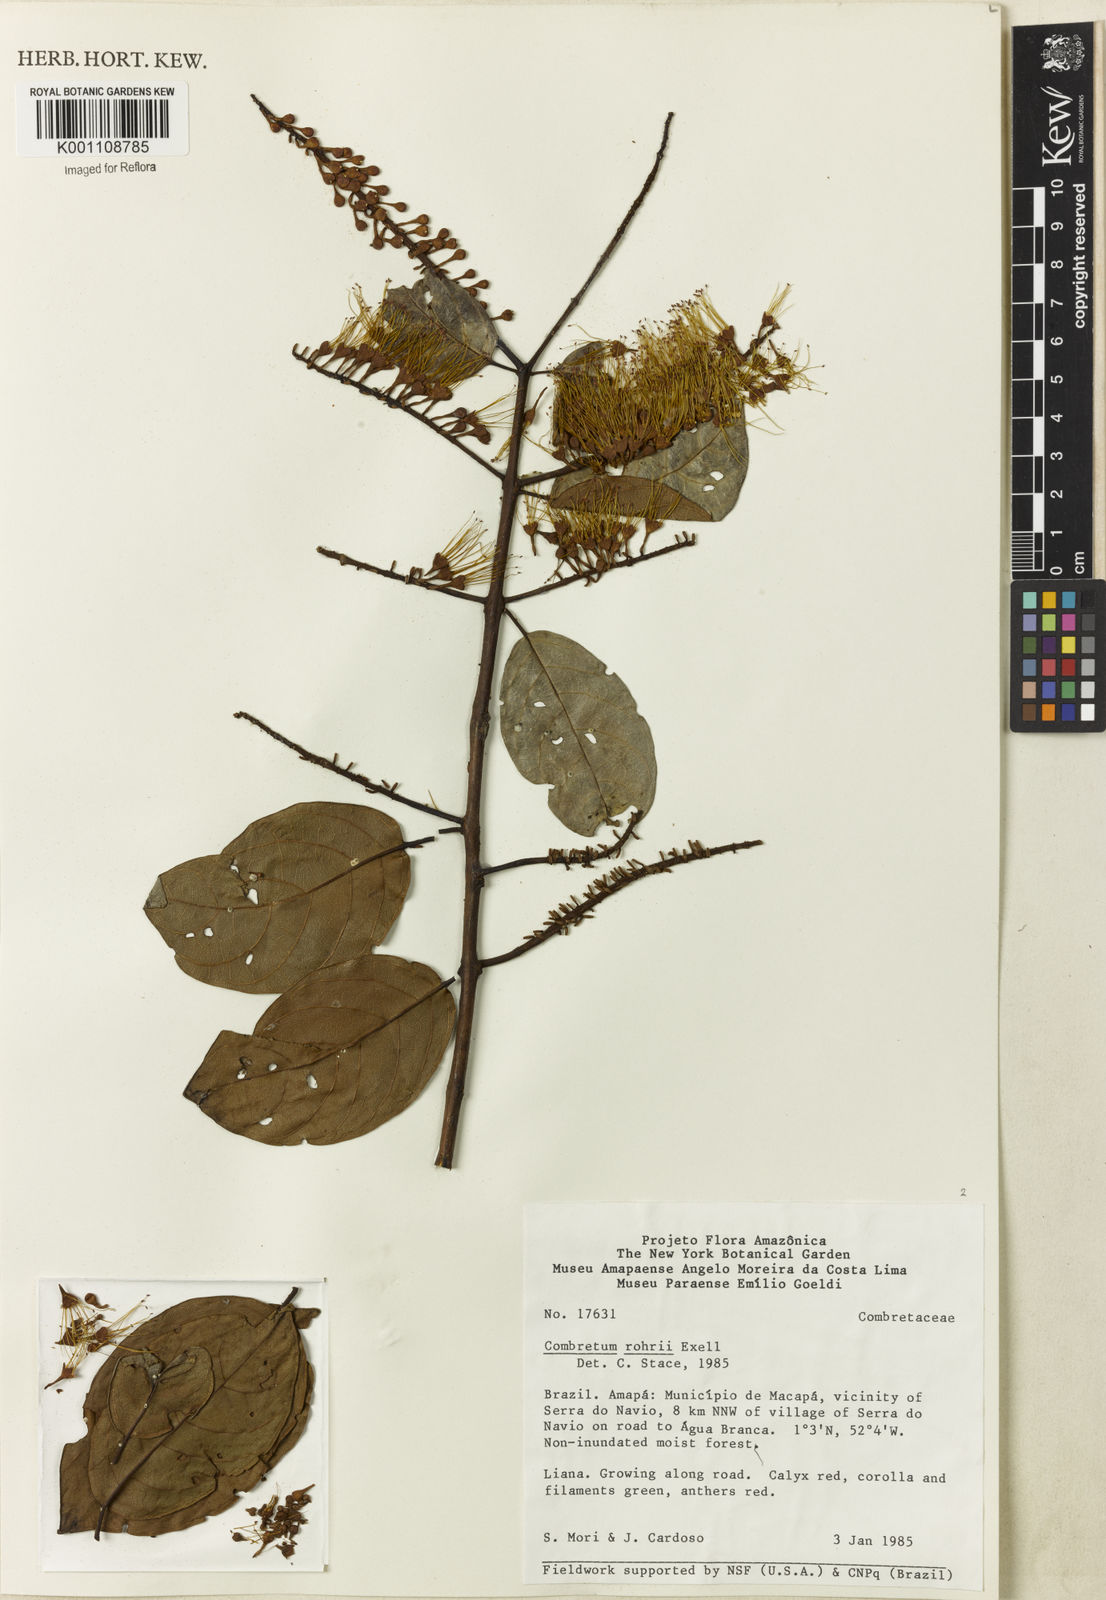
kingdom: Plantae
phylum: Tracheophyta
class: Magnoliopsida
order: Myrtales
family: Combretaceae
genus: Combretum
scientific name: Combretum rohrii
